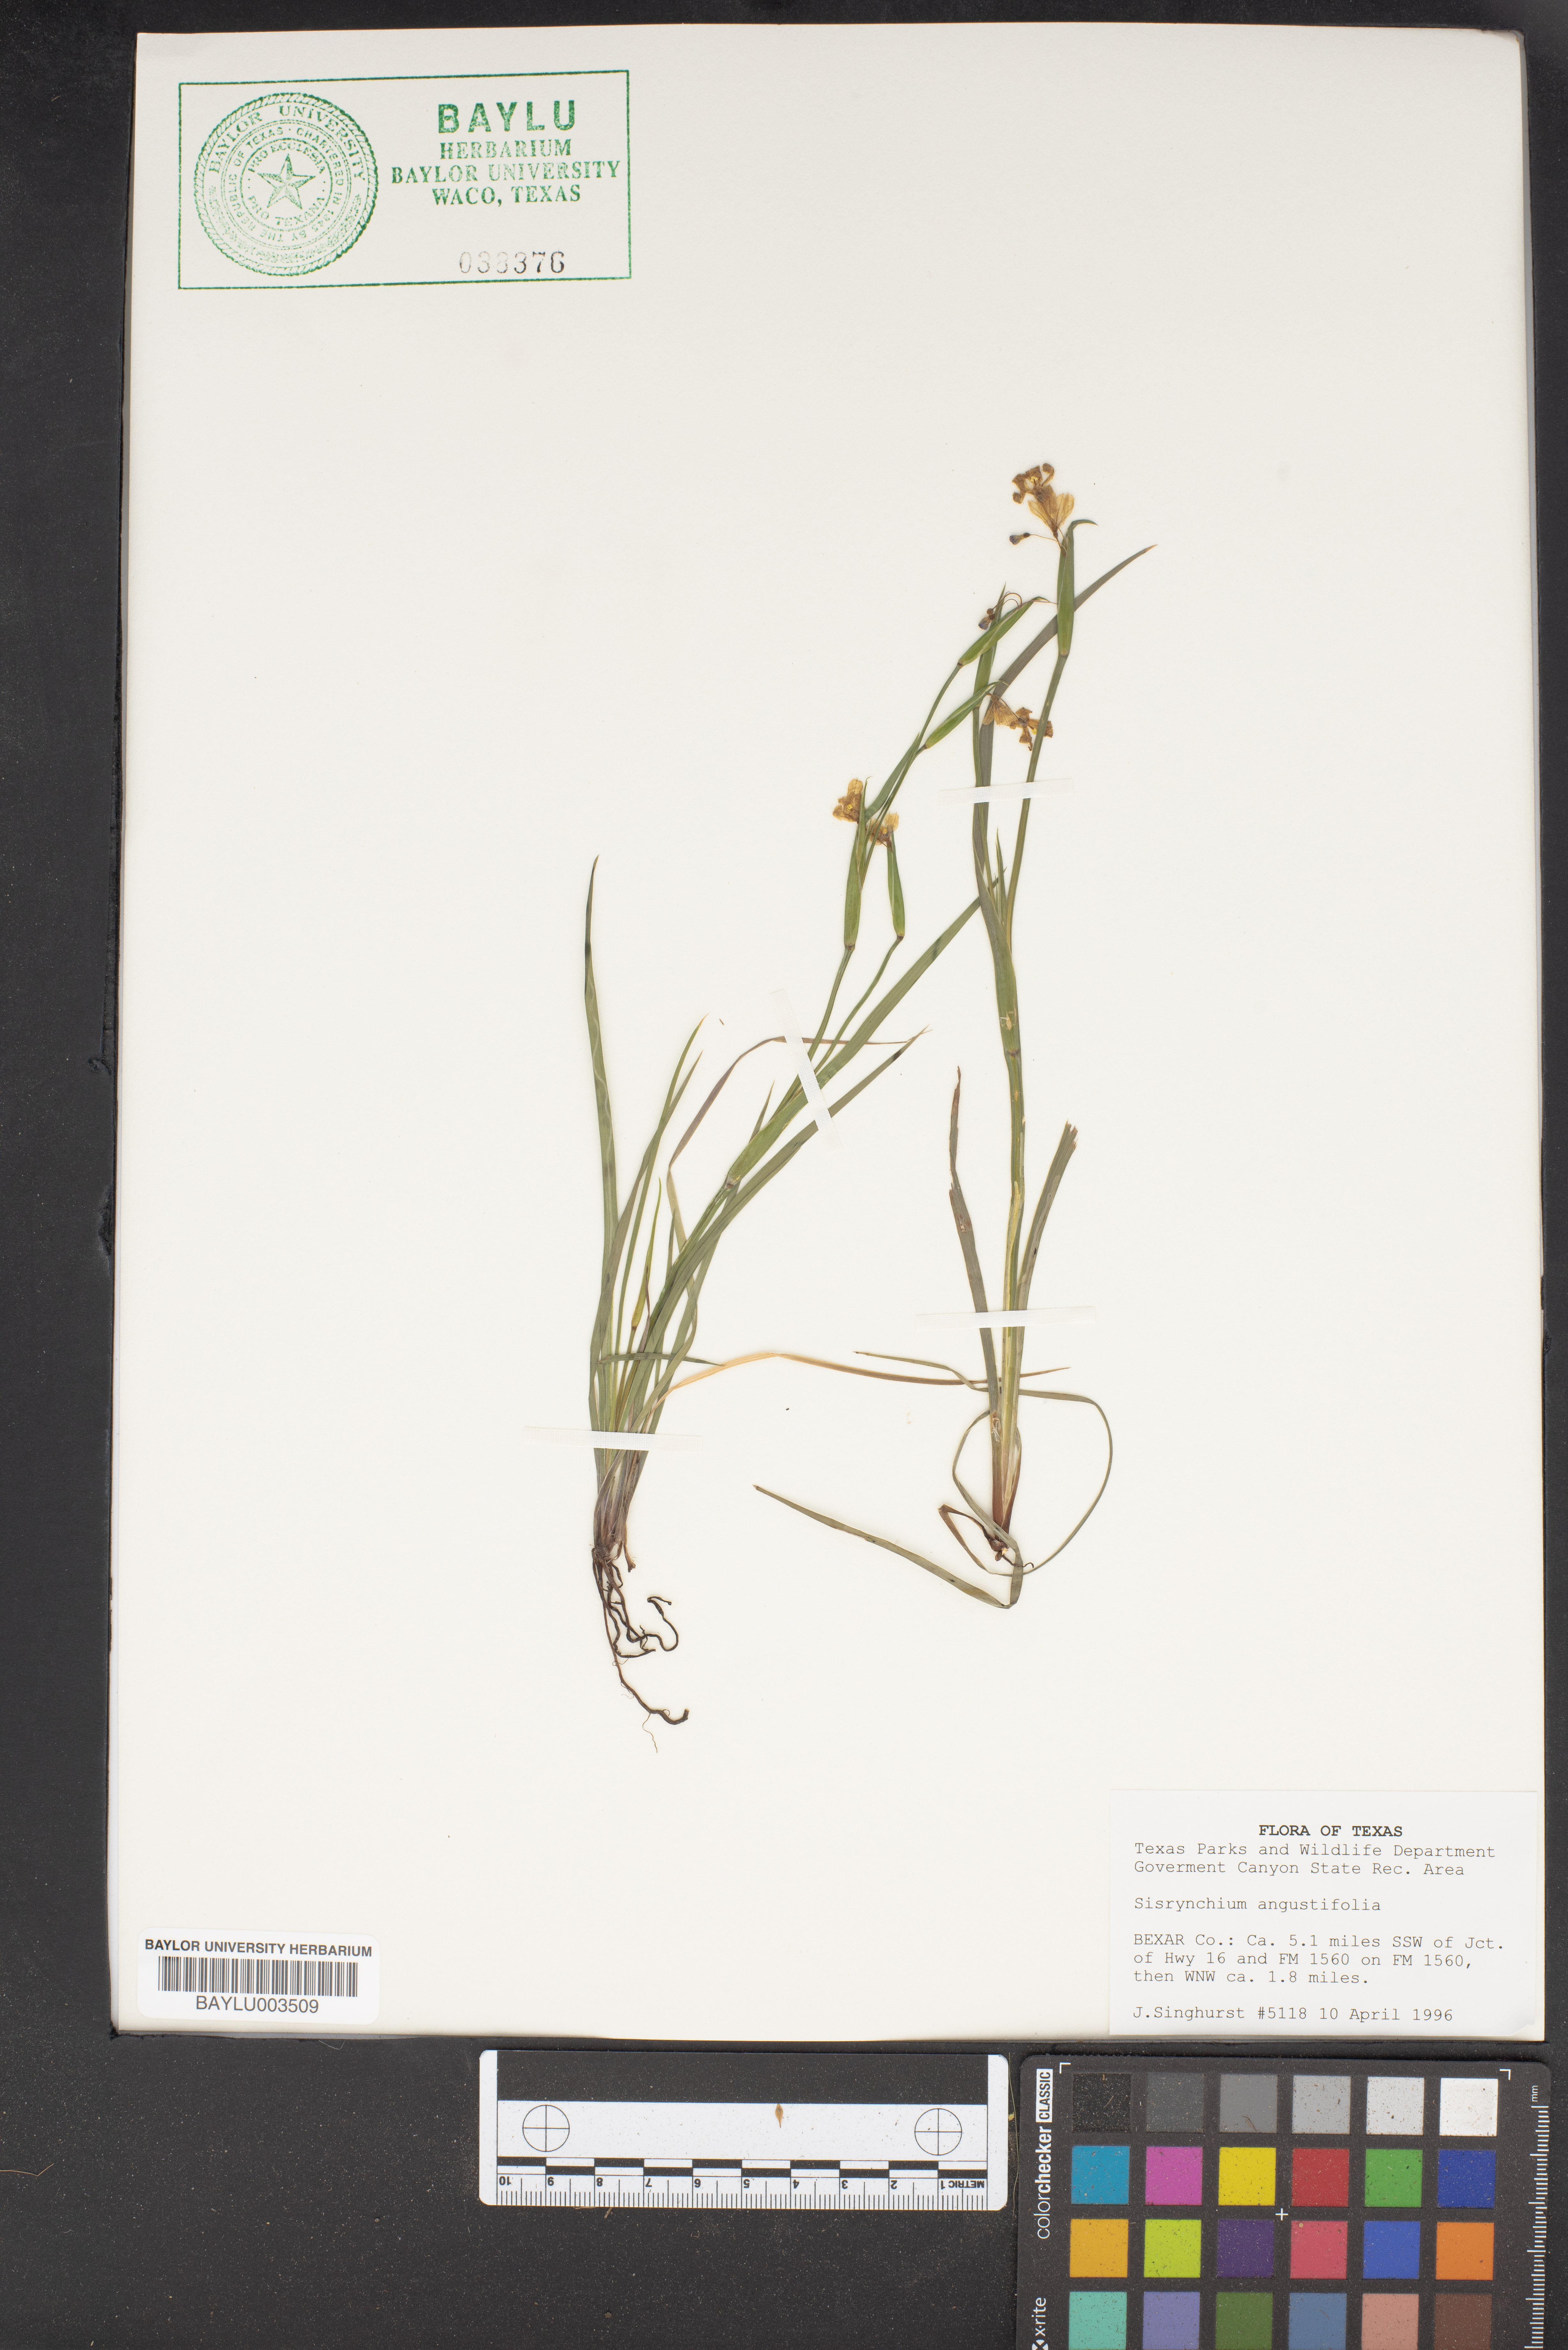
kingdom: Plantae
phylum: Tracheophyta
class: Liliopsida
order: Asparagales
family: Iridaceae
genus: Sisyrinchium
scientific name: Sisyrinchium angustifolium
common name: Narrow-leaf blue-eyed-grass
